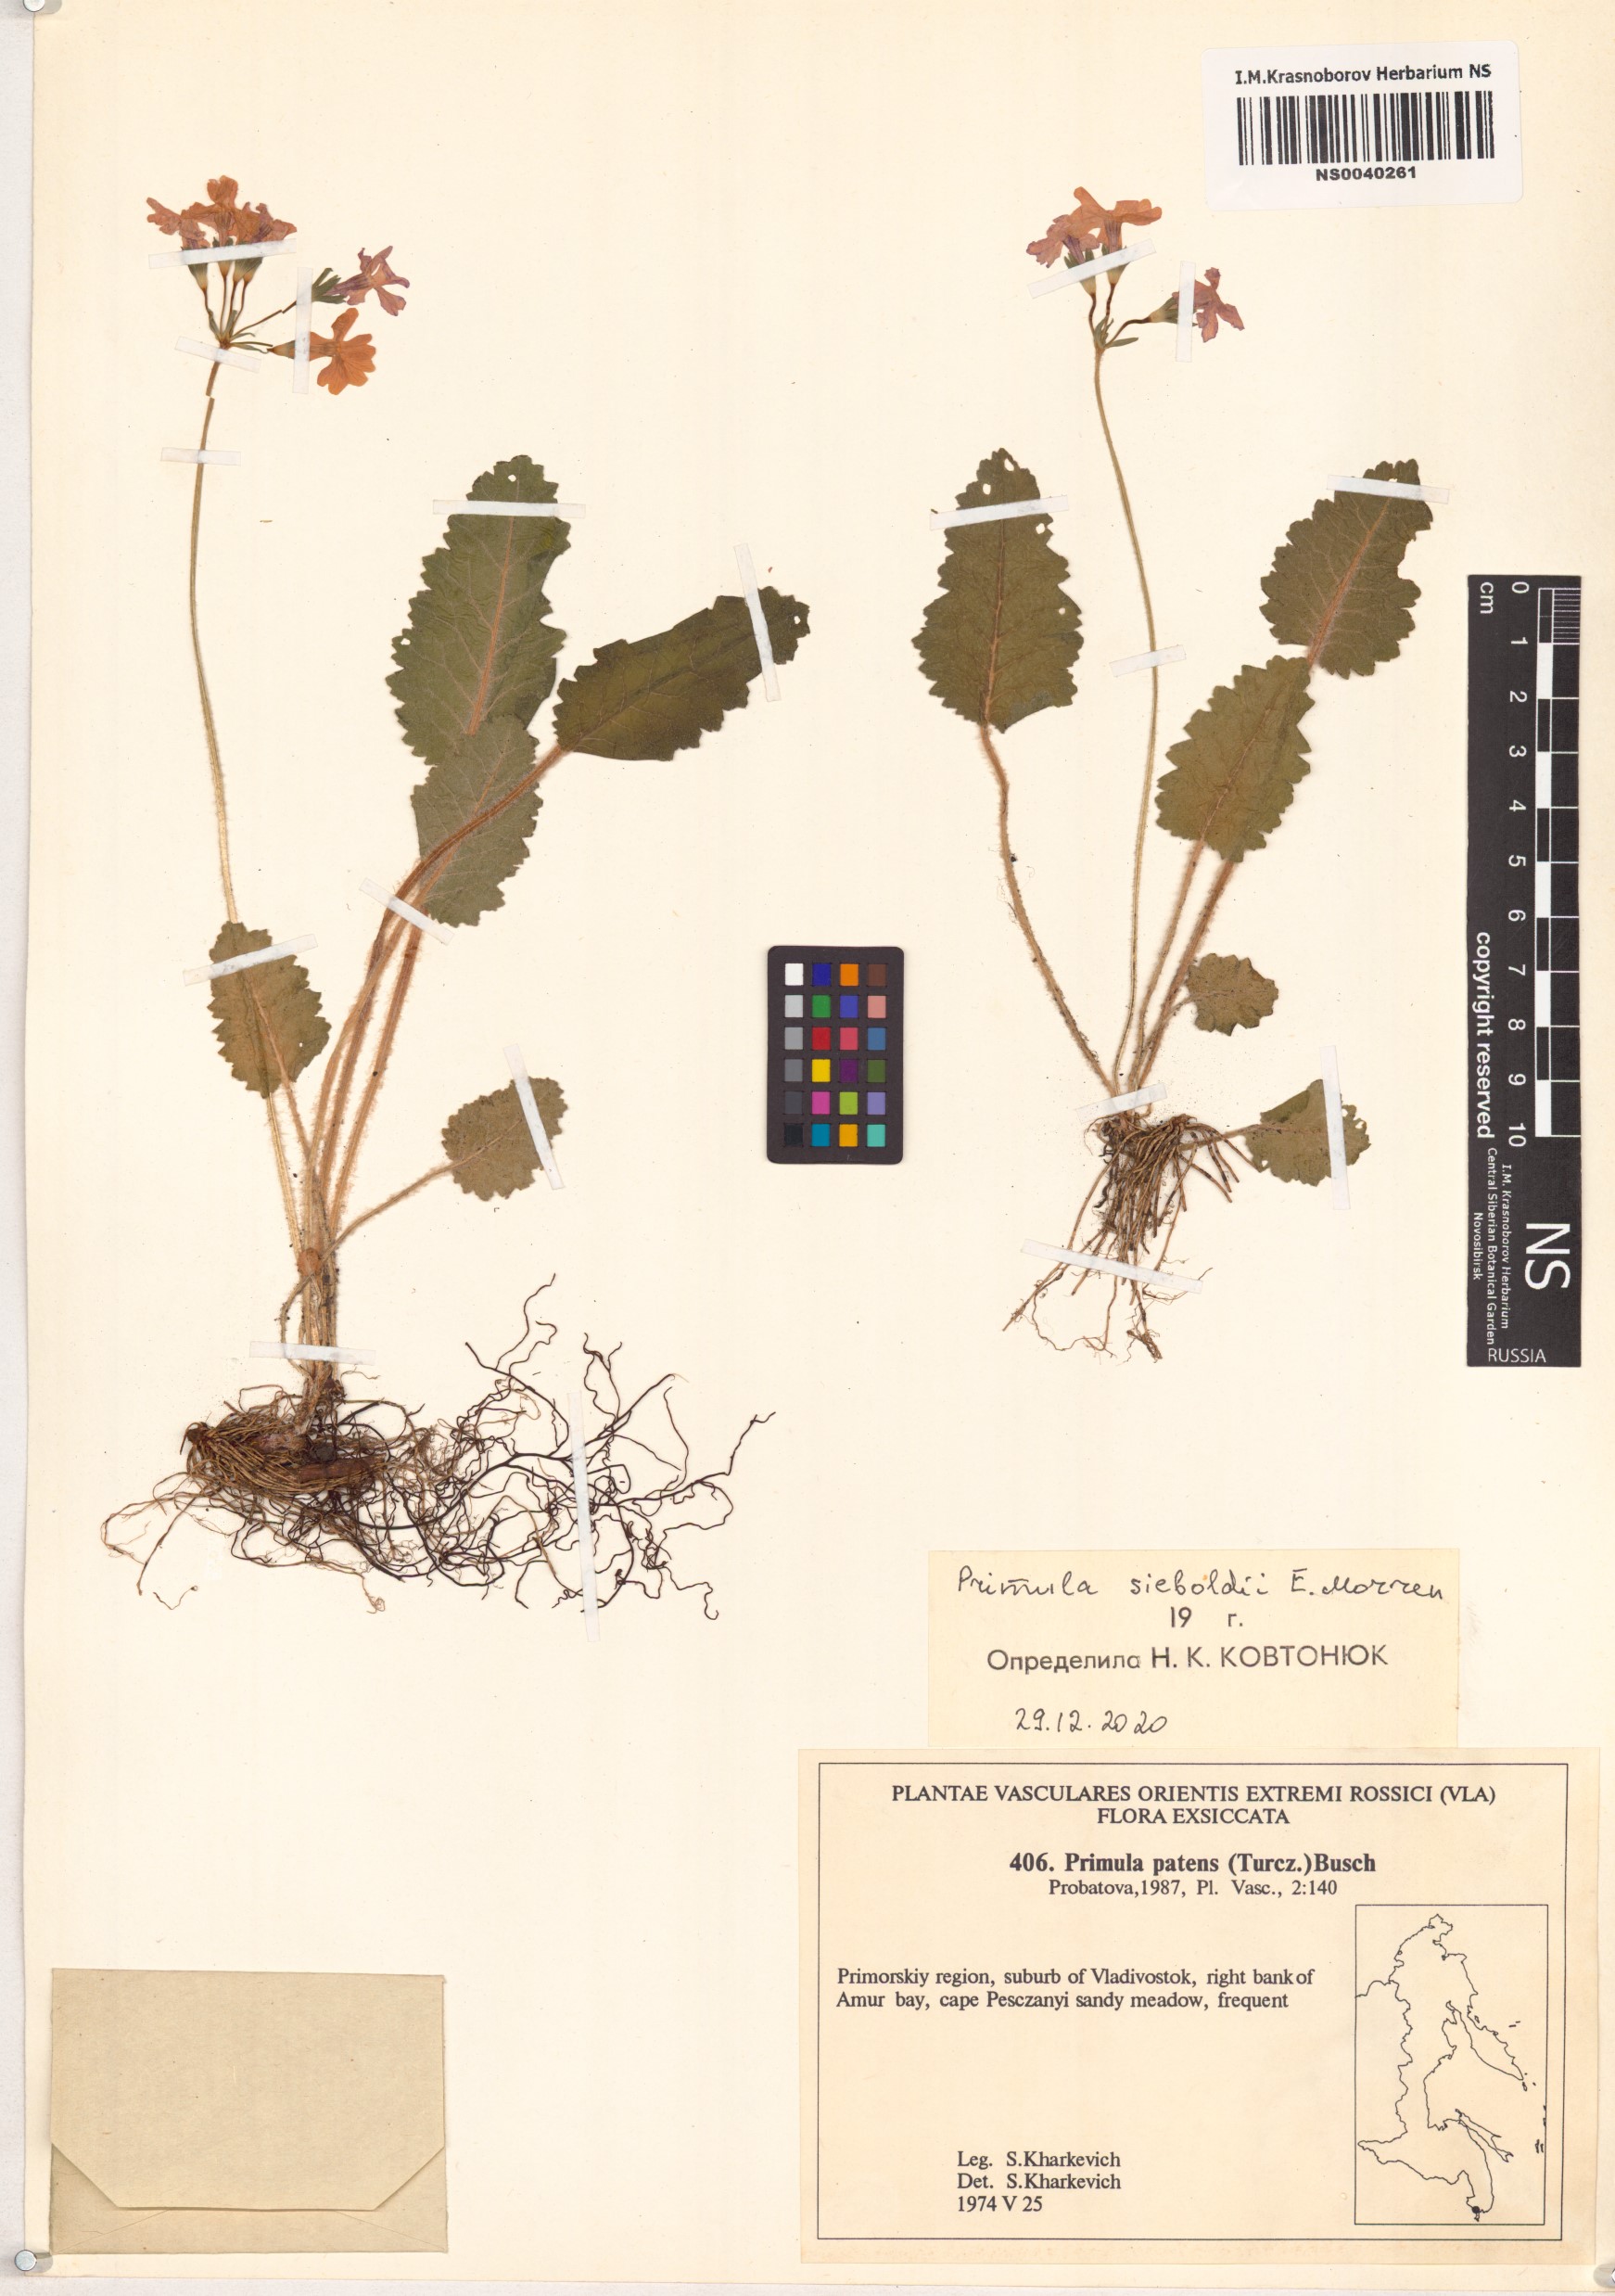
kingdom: Plantae
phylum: Tracheophyta
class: Magnoliopsida
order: Ericales
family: Primulaceae
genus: Primula
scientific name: Primula sieboldii
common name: Japanese primrose
